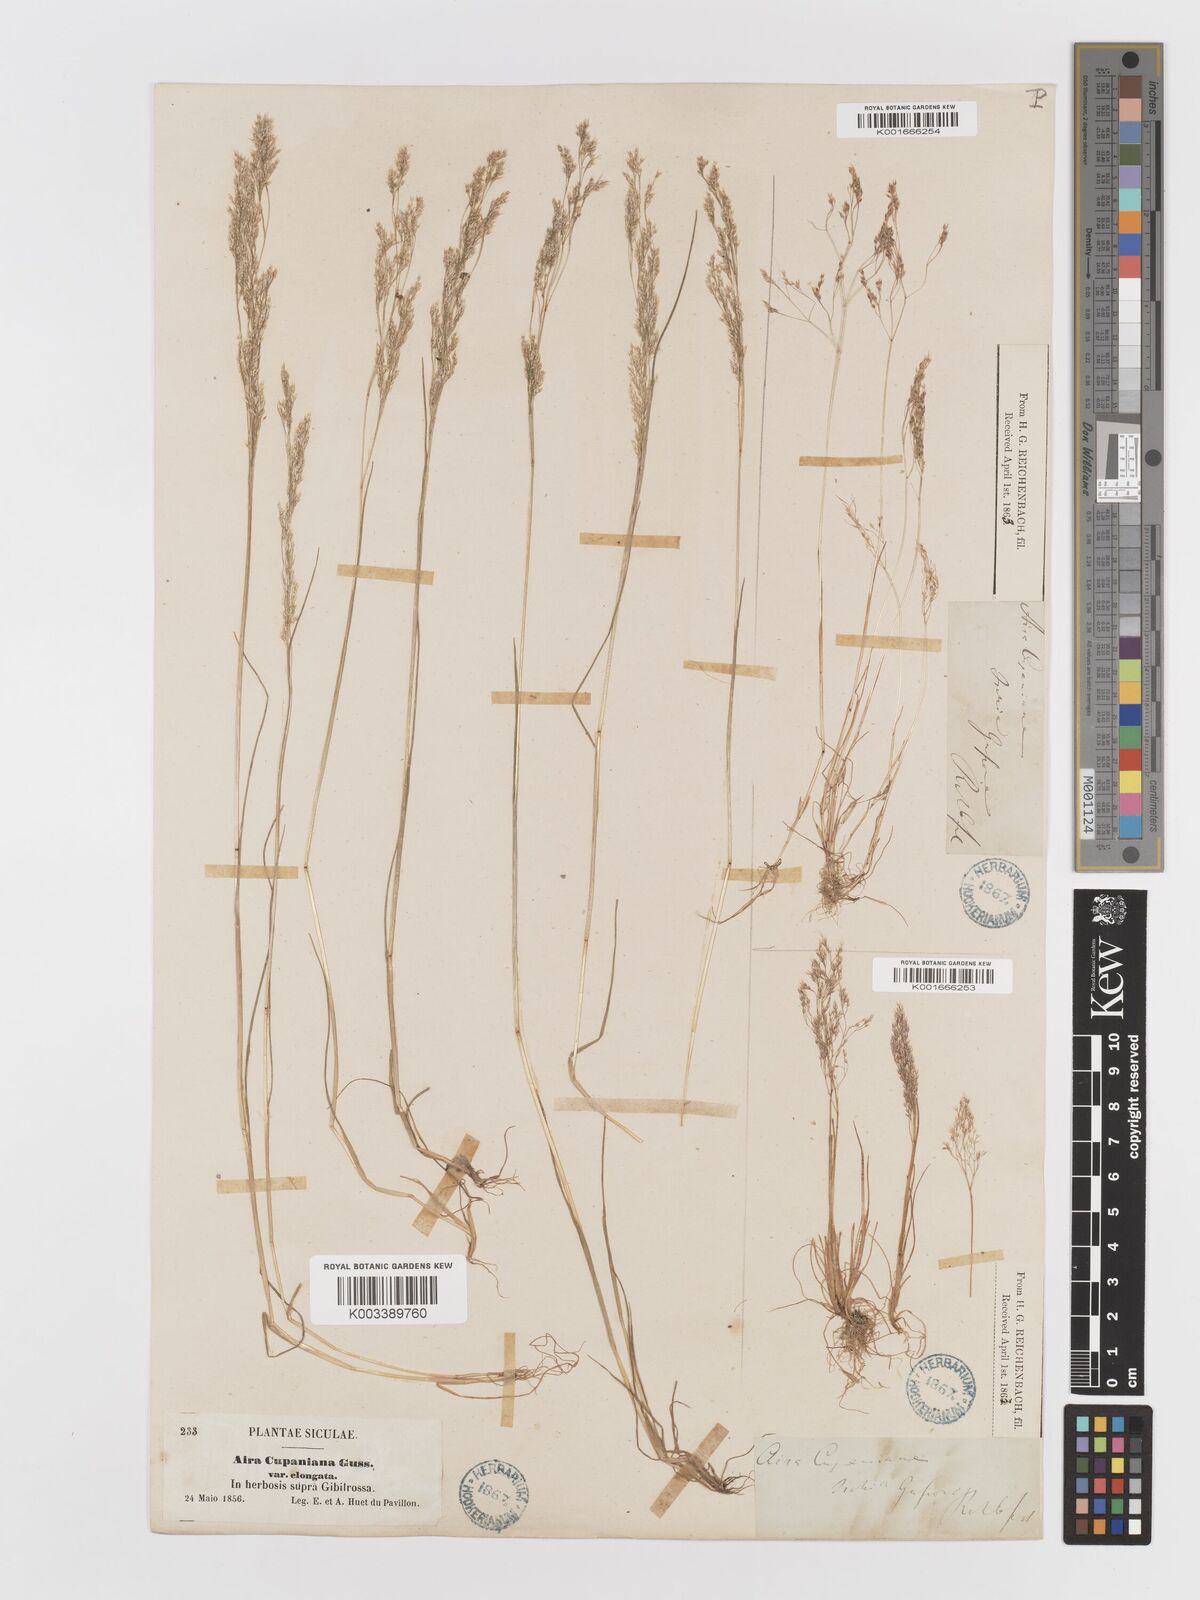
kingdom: Plantae
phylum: Tracheophyta
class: Liliopsida
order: Poales
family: Poaceae
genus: Aira
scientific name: Aira cupaniana
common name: Silver hairgrass
